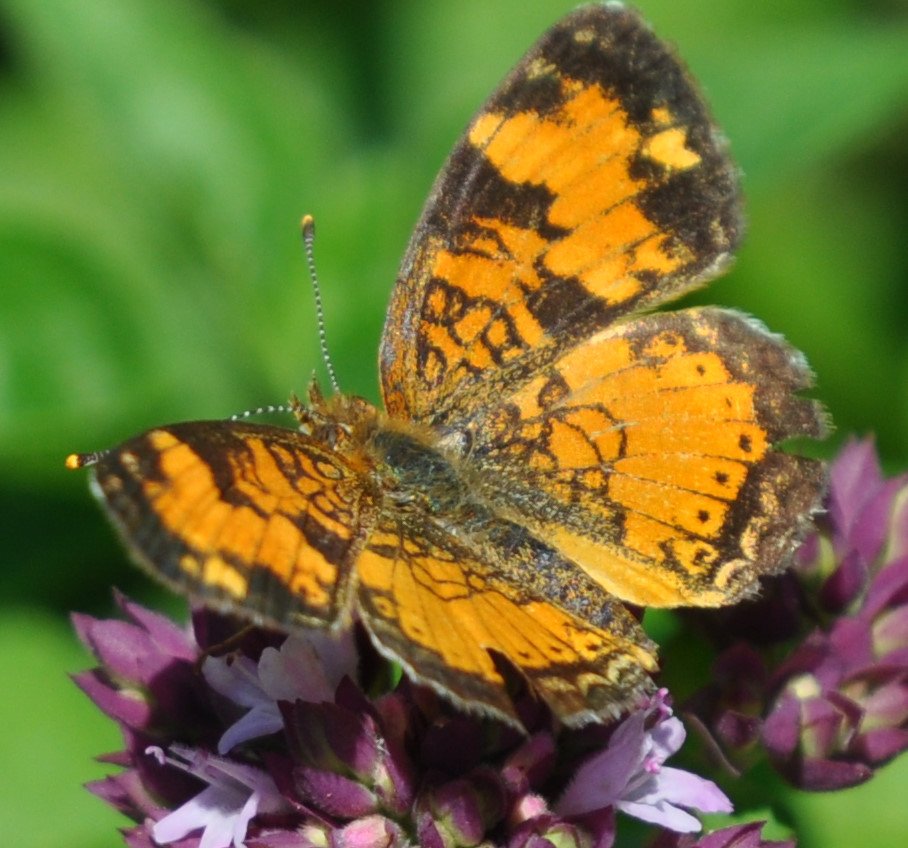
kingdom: Animalia
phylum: Arthropoda
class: Insecta
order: Lepidoptera
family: Nymphalidae
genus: Phyciodes
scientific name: Phyciodes tharos
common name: Northern Crescent
